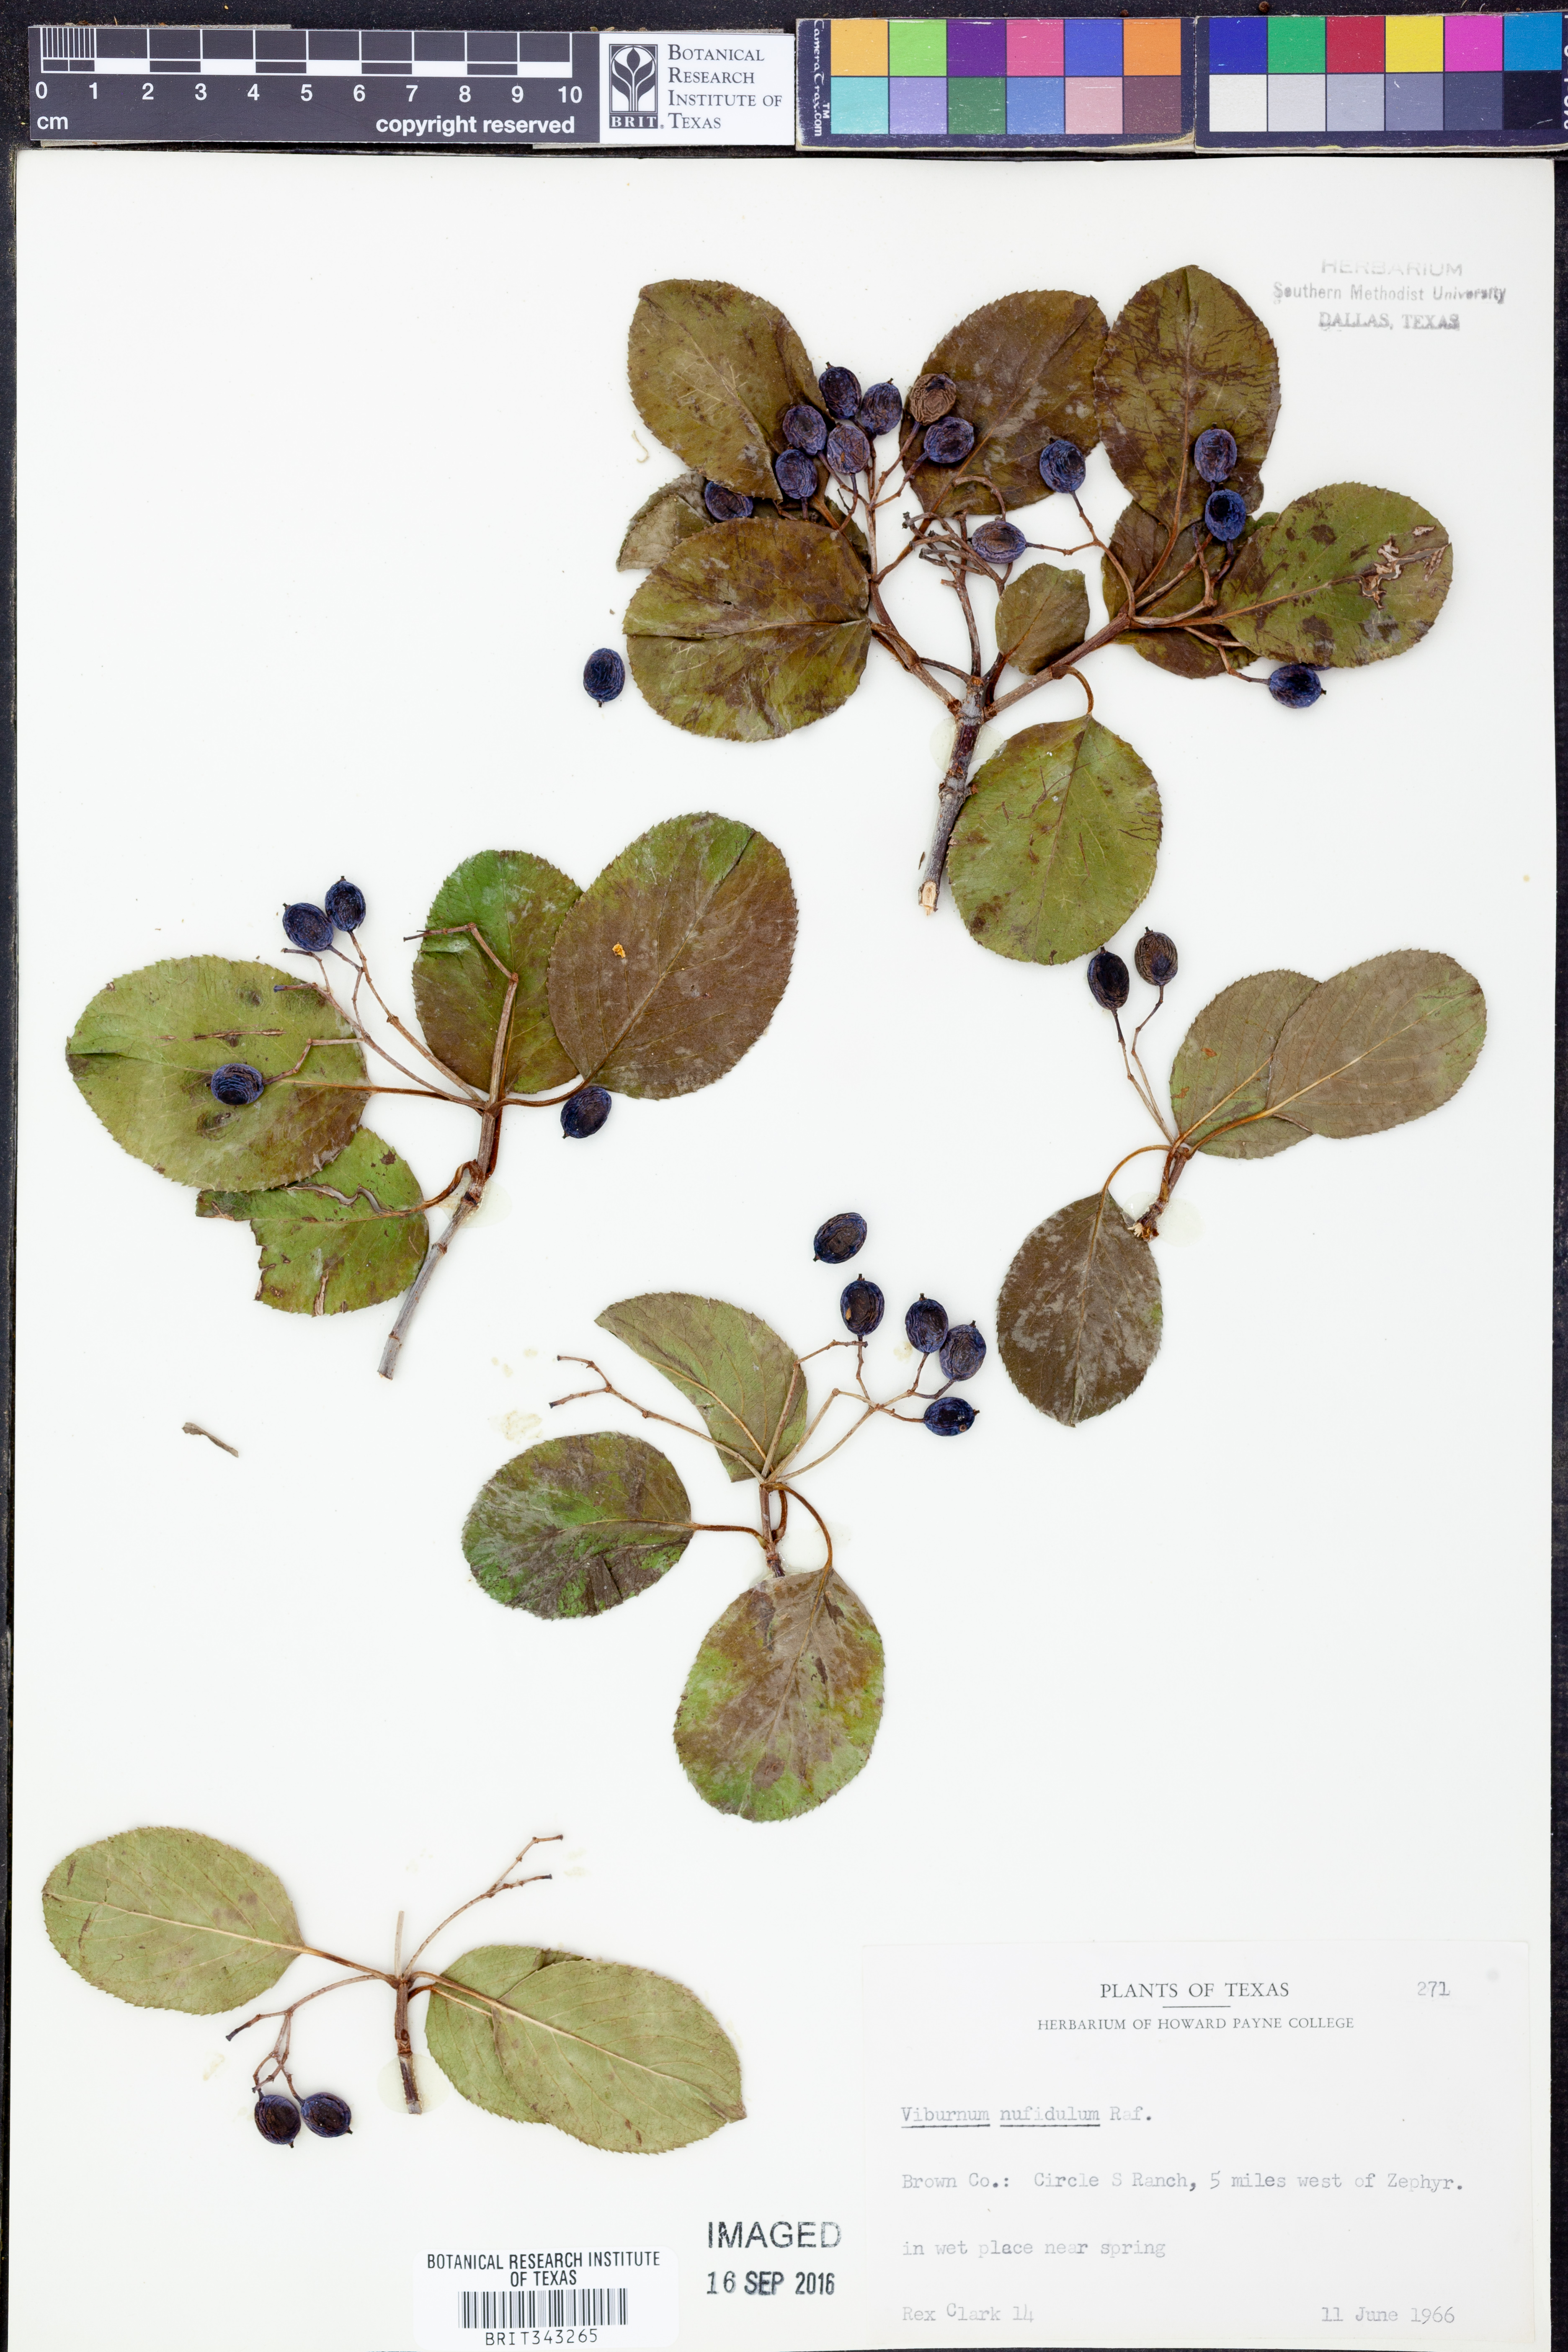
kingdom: Plantae
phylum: Tracheophyta
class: Magnoliopsida
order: Dipsacales
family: Viburnaceae
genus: Viburnum
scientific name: Viburnum rufidulum
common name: Blue haw
